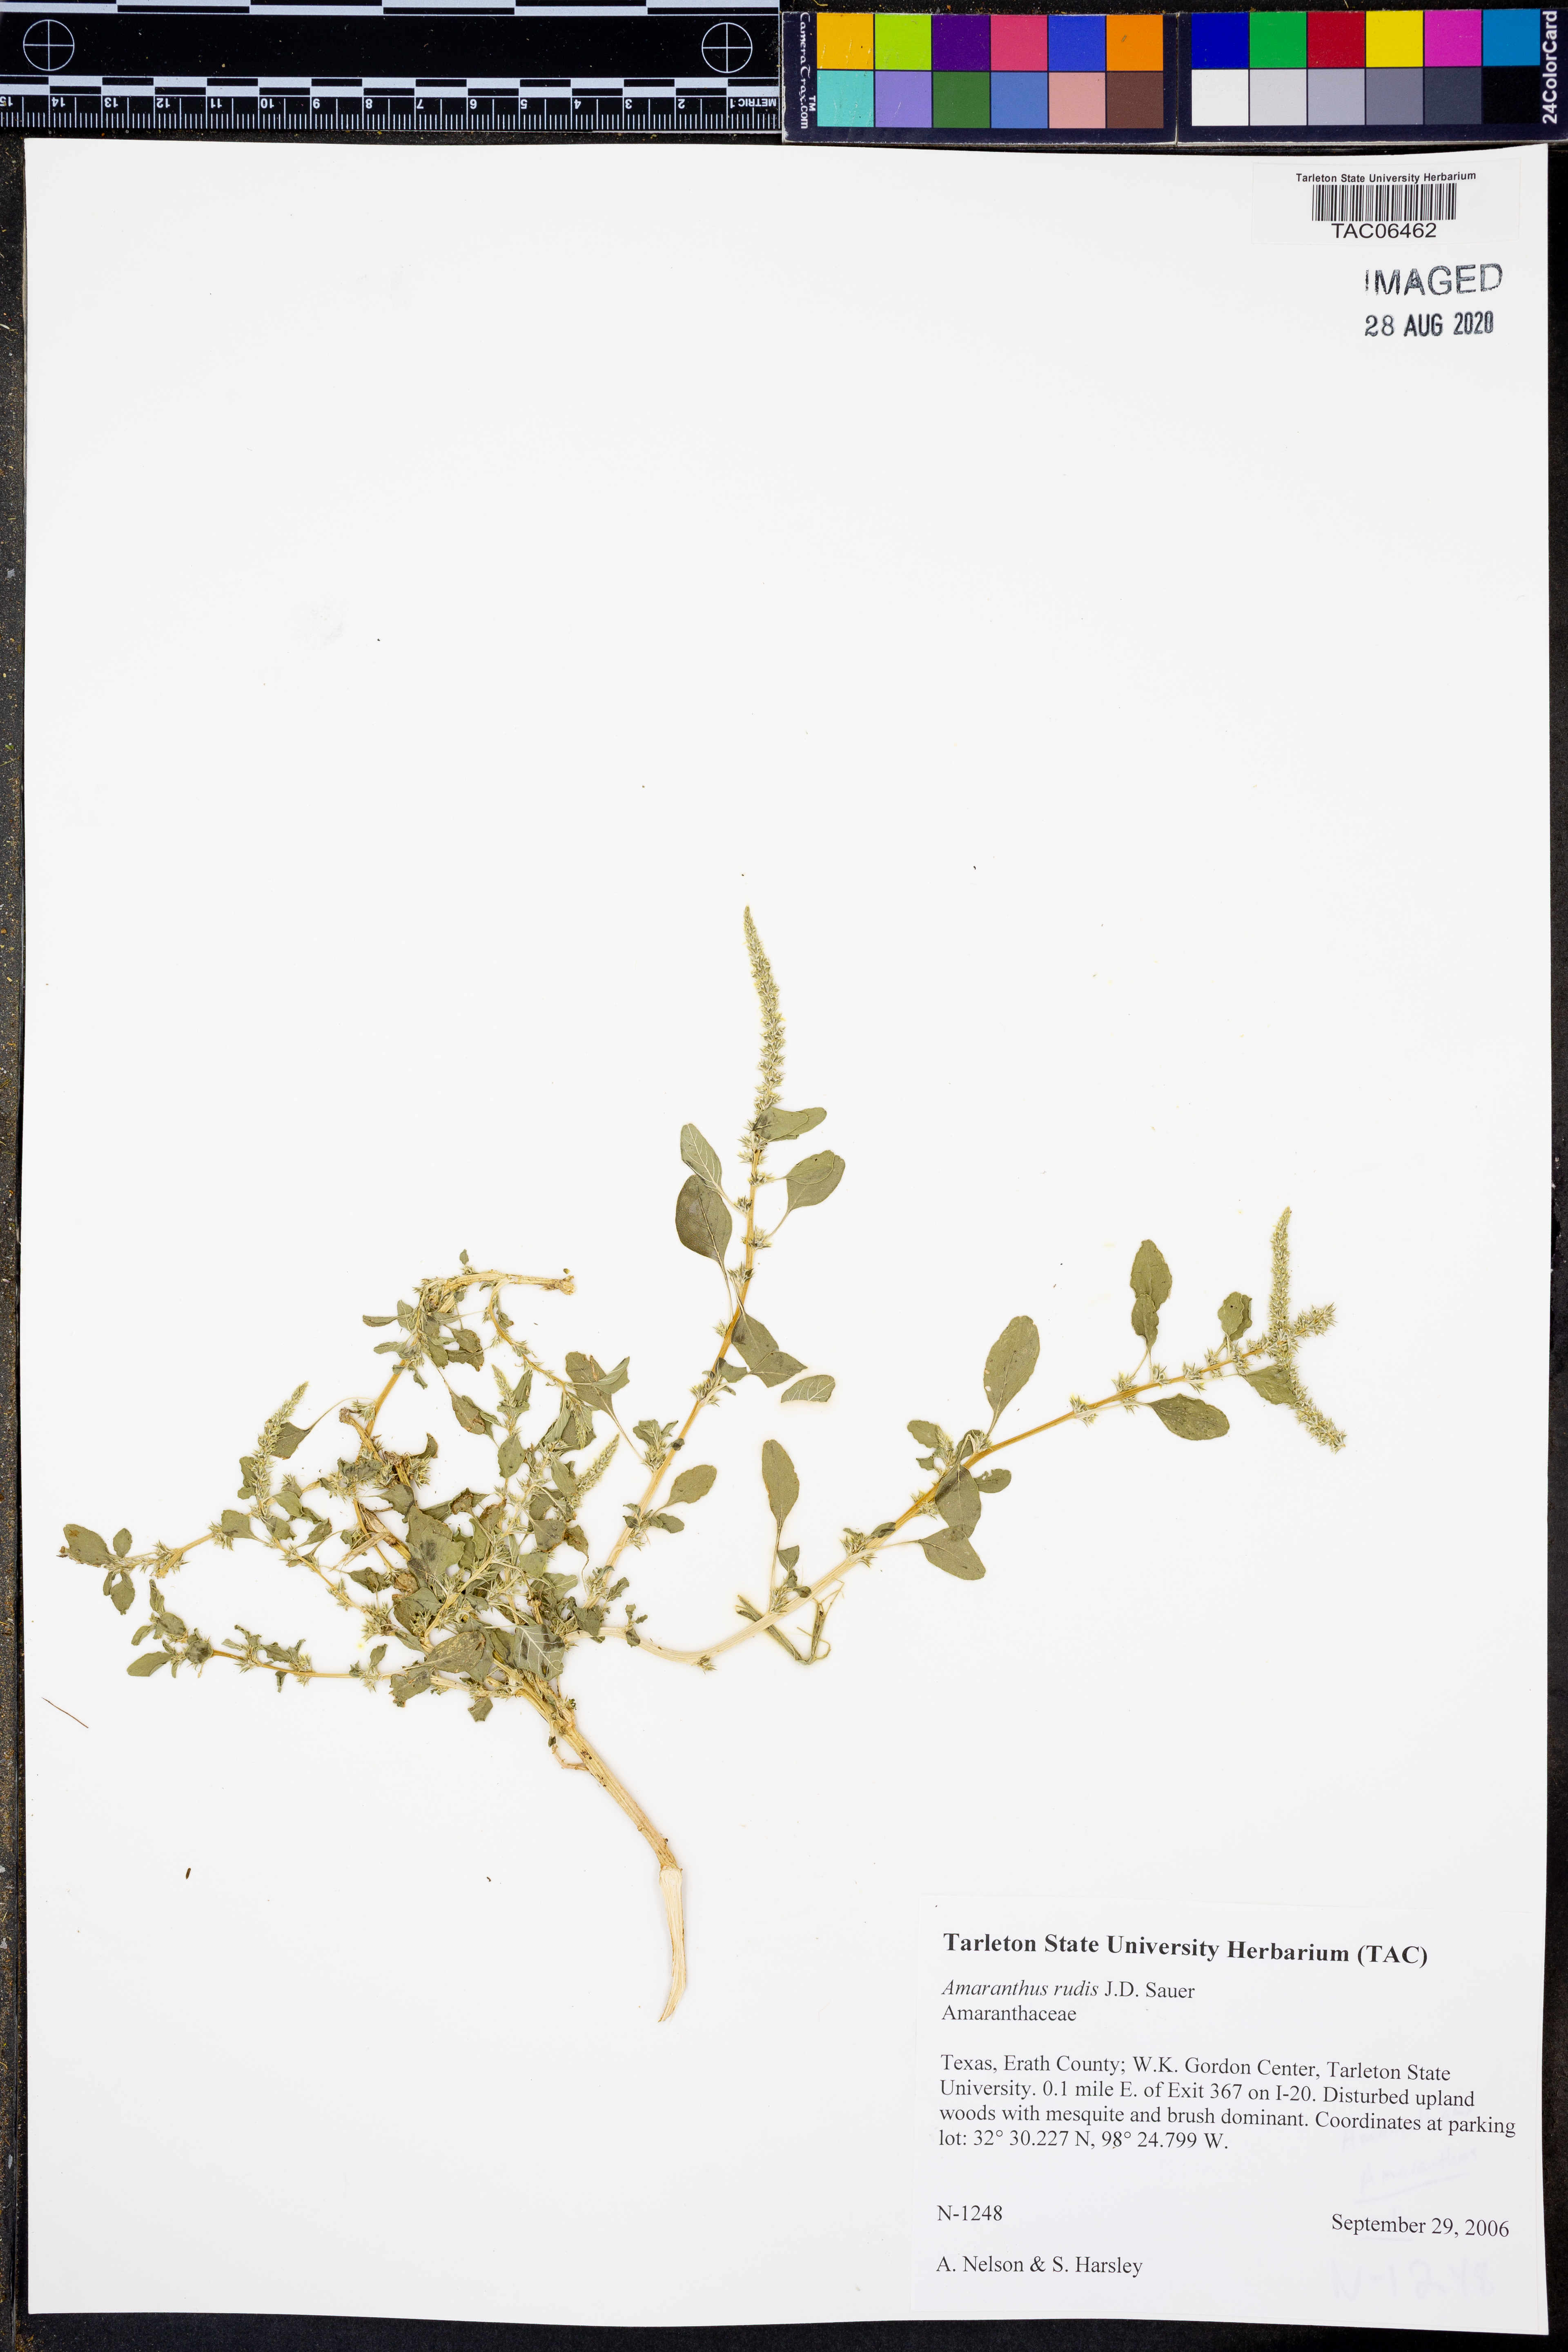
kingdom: Plantae
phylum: Tracheophyta
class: Magnoliopsida
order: Caryophyllales
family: Amaranthaceae
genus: Amaranthus
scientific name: Amaranthus tuberculatus
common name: Rough-fruit amaranth
